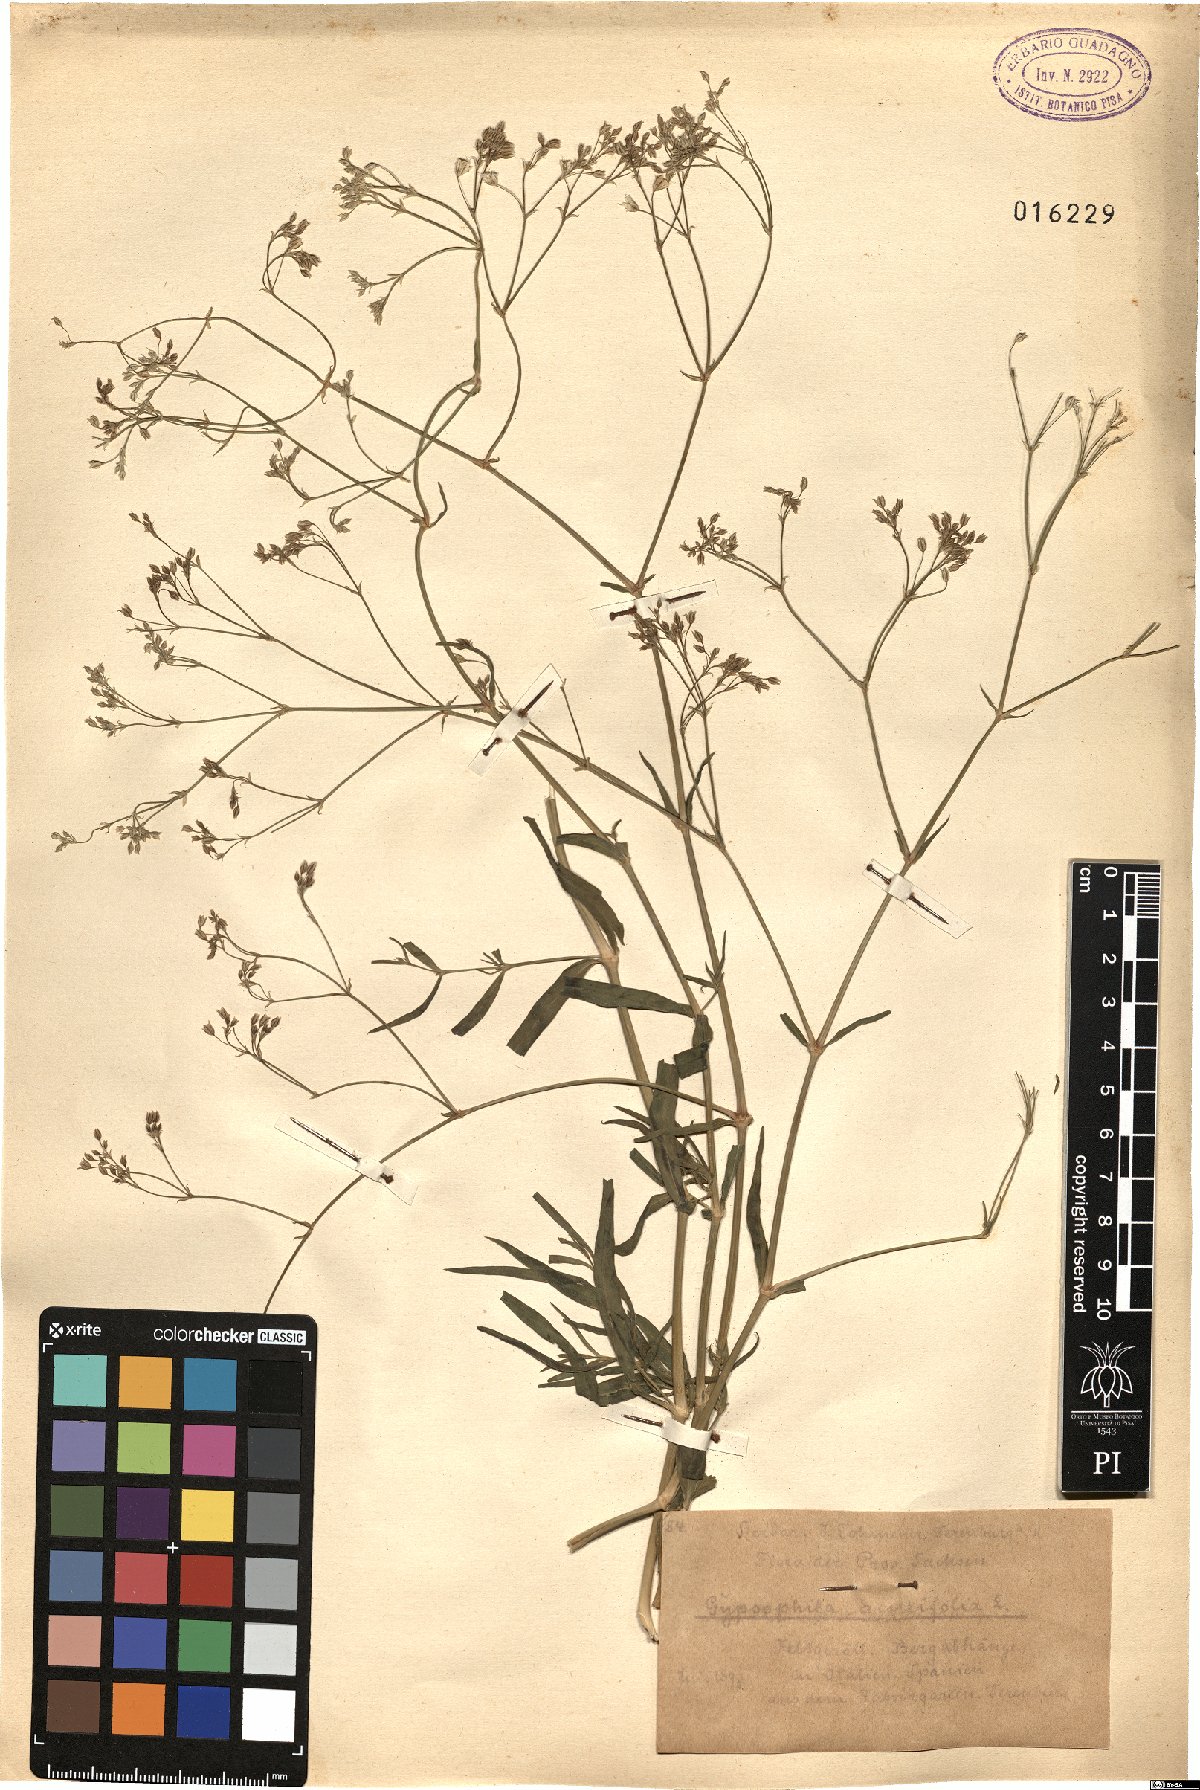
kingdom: Plantae
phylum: Tracheophyta
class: Magnoliopsida
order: Caryophyllales
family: Caryophyllaceae
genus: Gypsophila
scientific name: Gypsophila acutifolia
